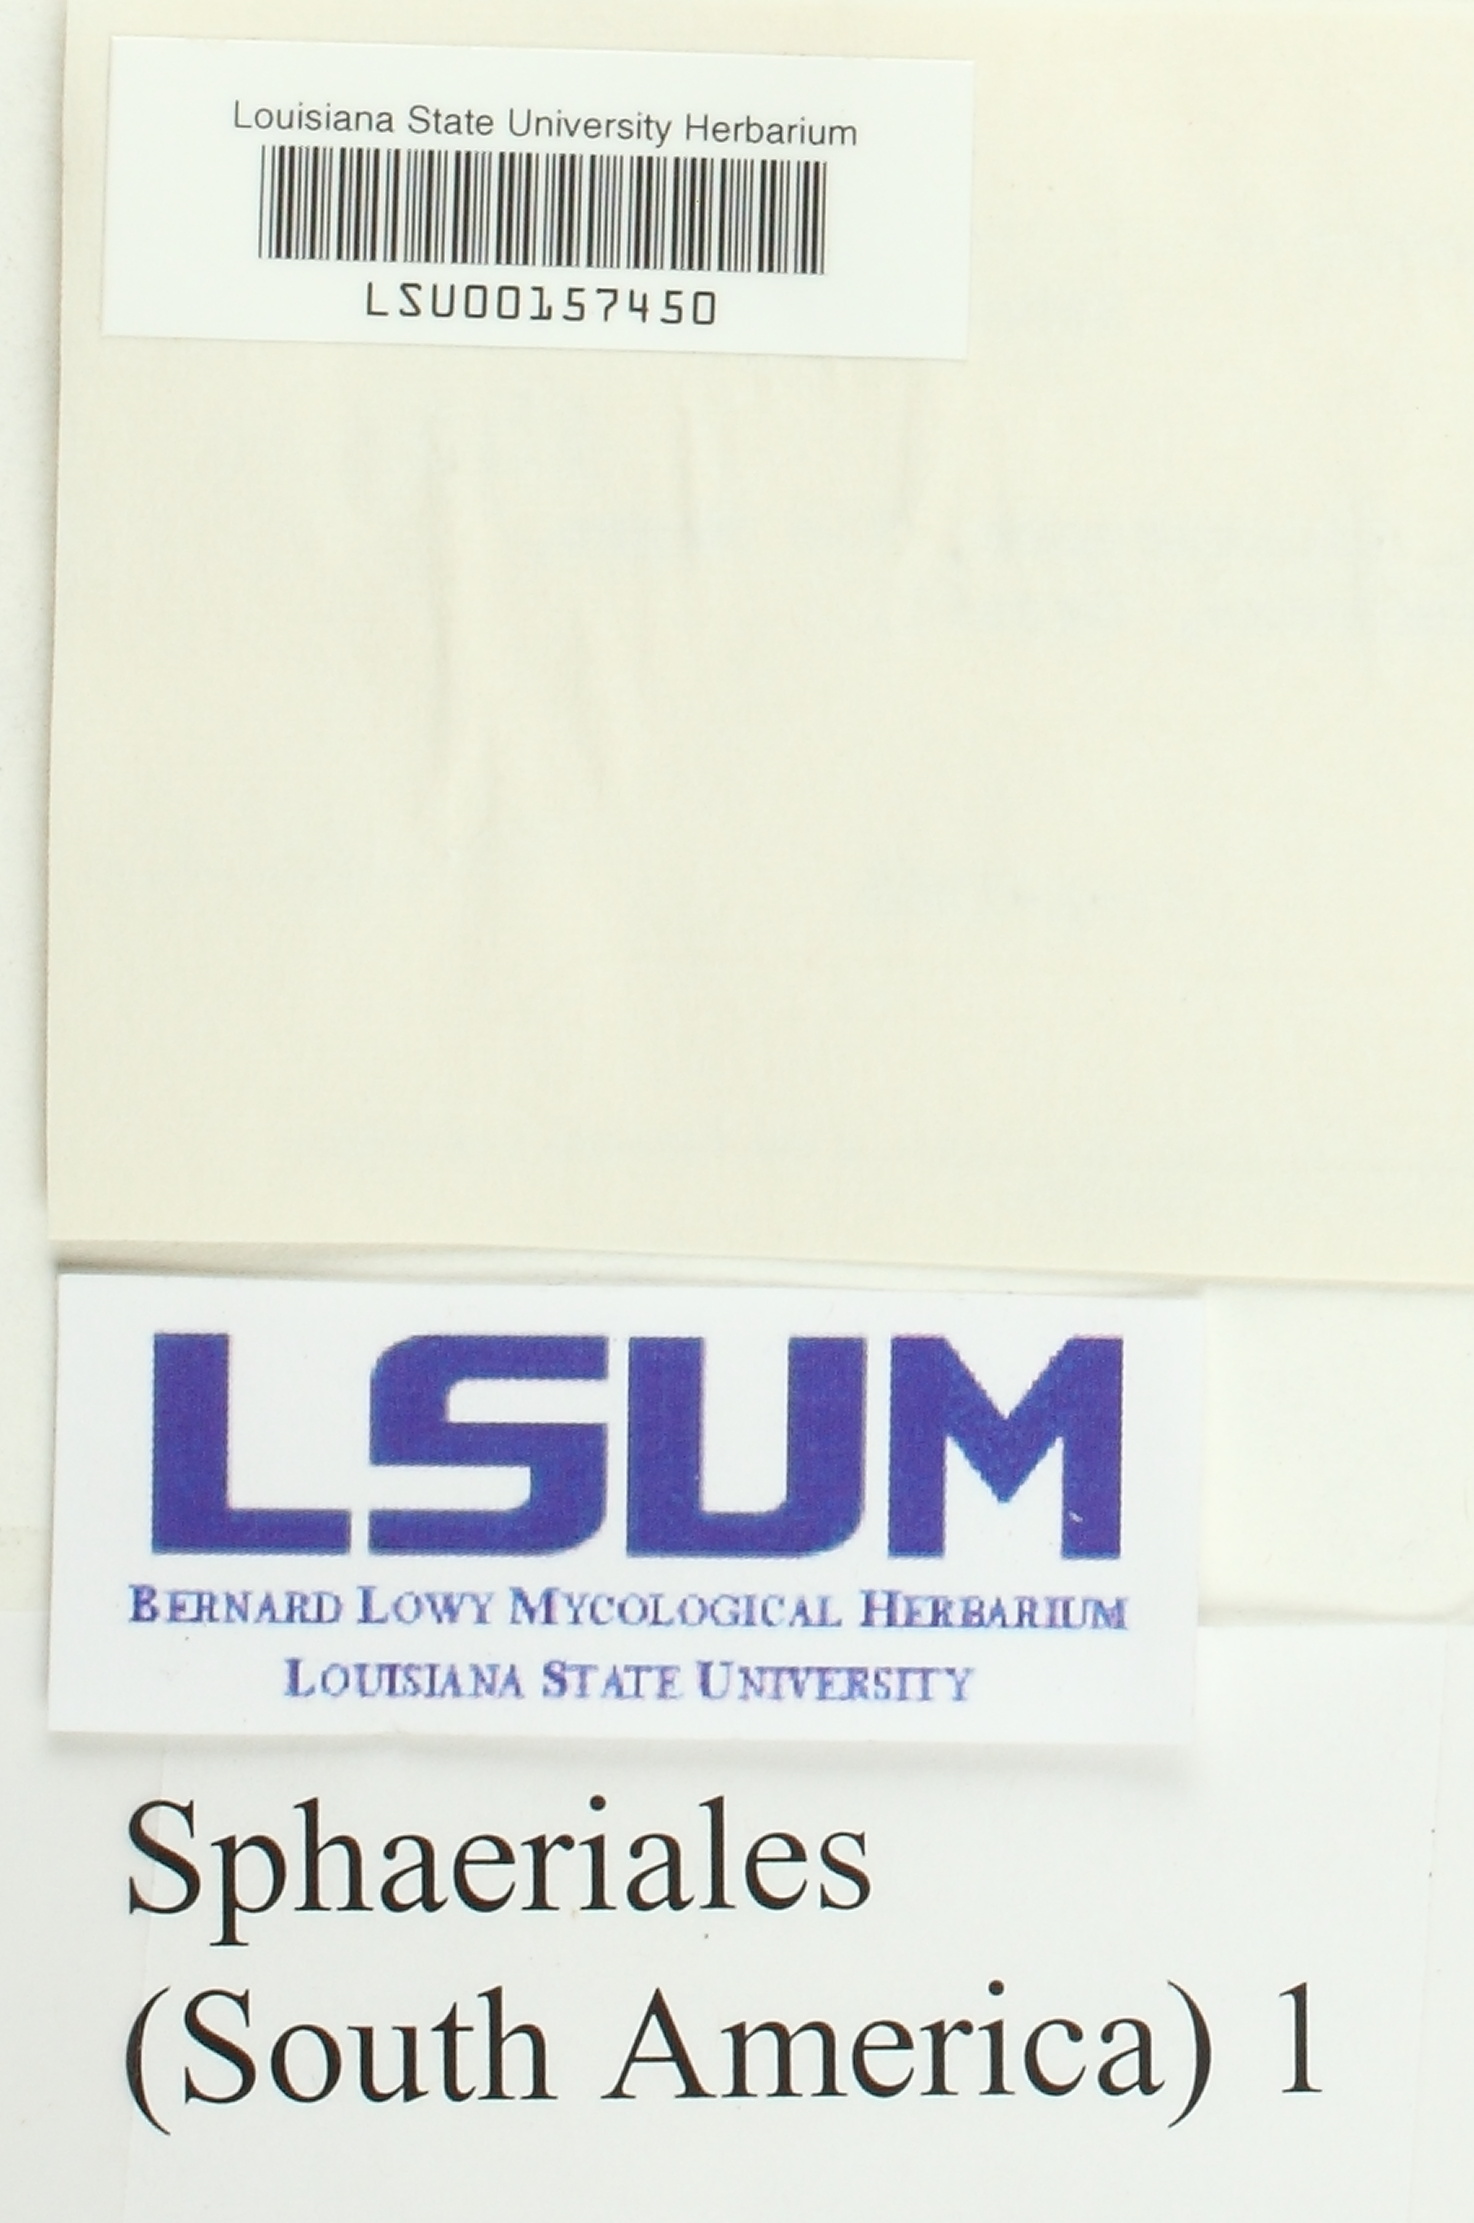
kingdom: Fungi
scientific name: Fungi
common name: Fungi
